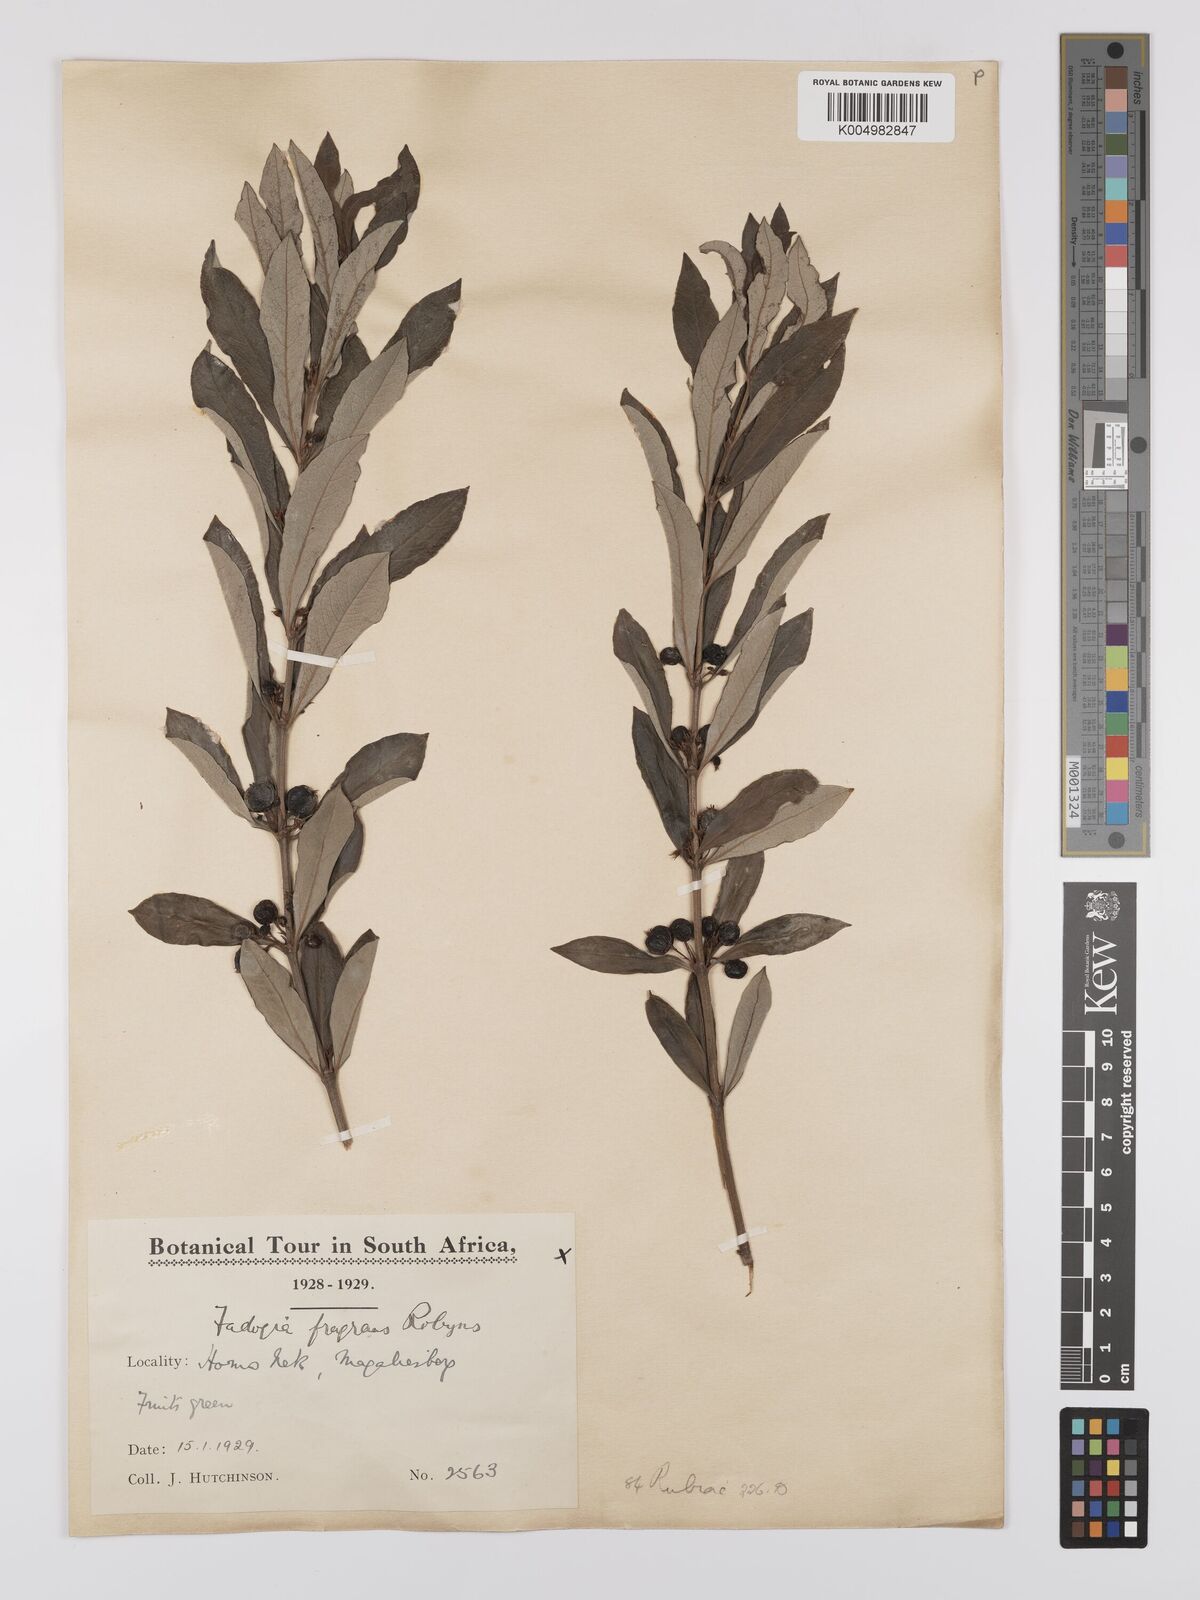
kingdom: Plantae
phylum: Tracheophyta
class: Magnoliopsida
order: Gentianales
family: Rubiaceae
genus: Fadogia
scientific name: Fadogia fragrans
